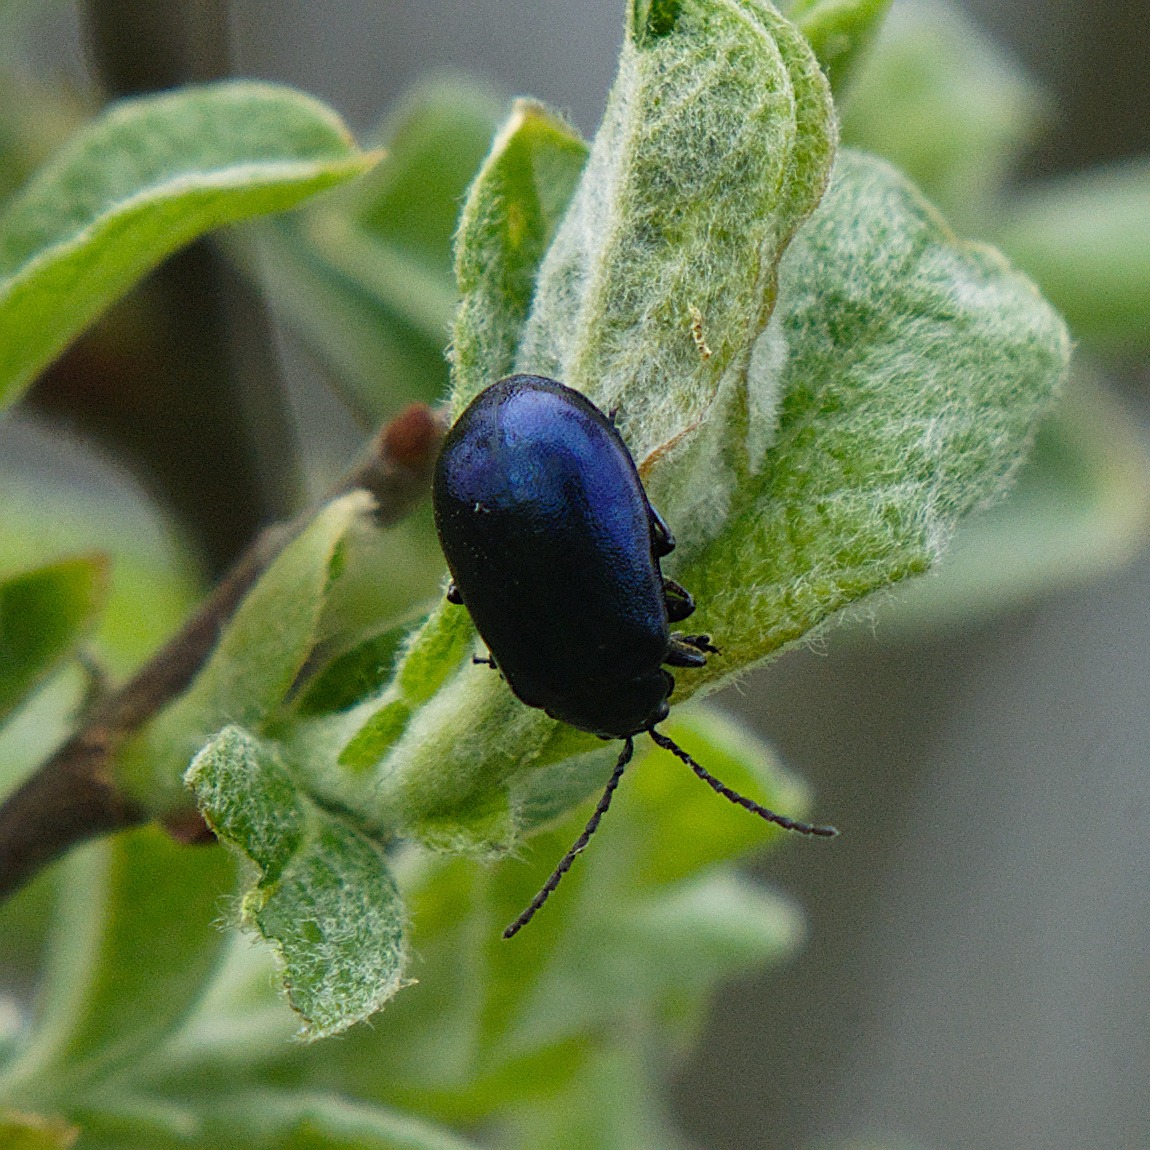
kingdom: Animalia
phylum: Arthropoda
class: Insecta
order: Coleoptera
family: Chrysomelidae
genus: Agelastica
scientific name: Agelastica alni
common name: Ellebladbille
